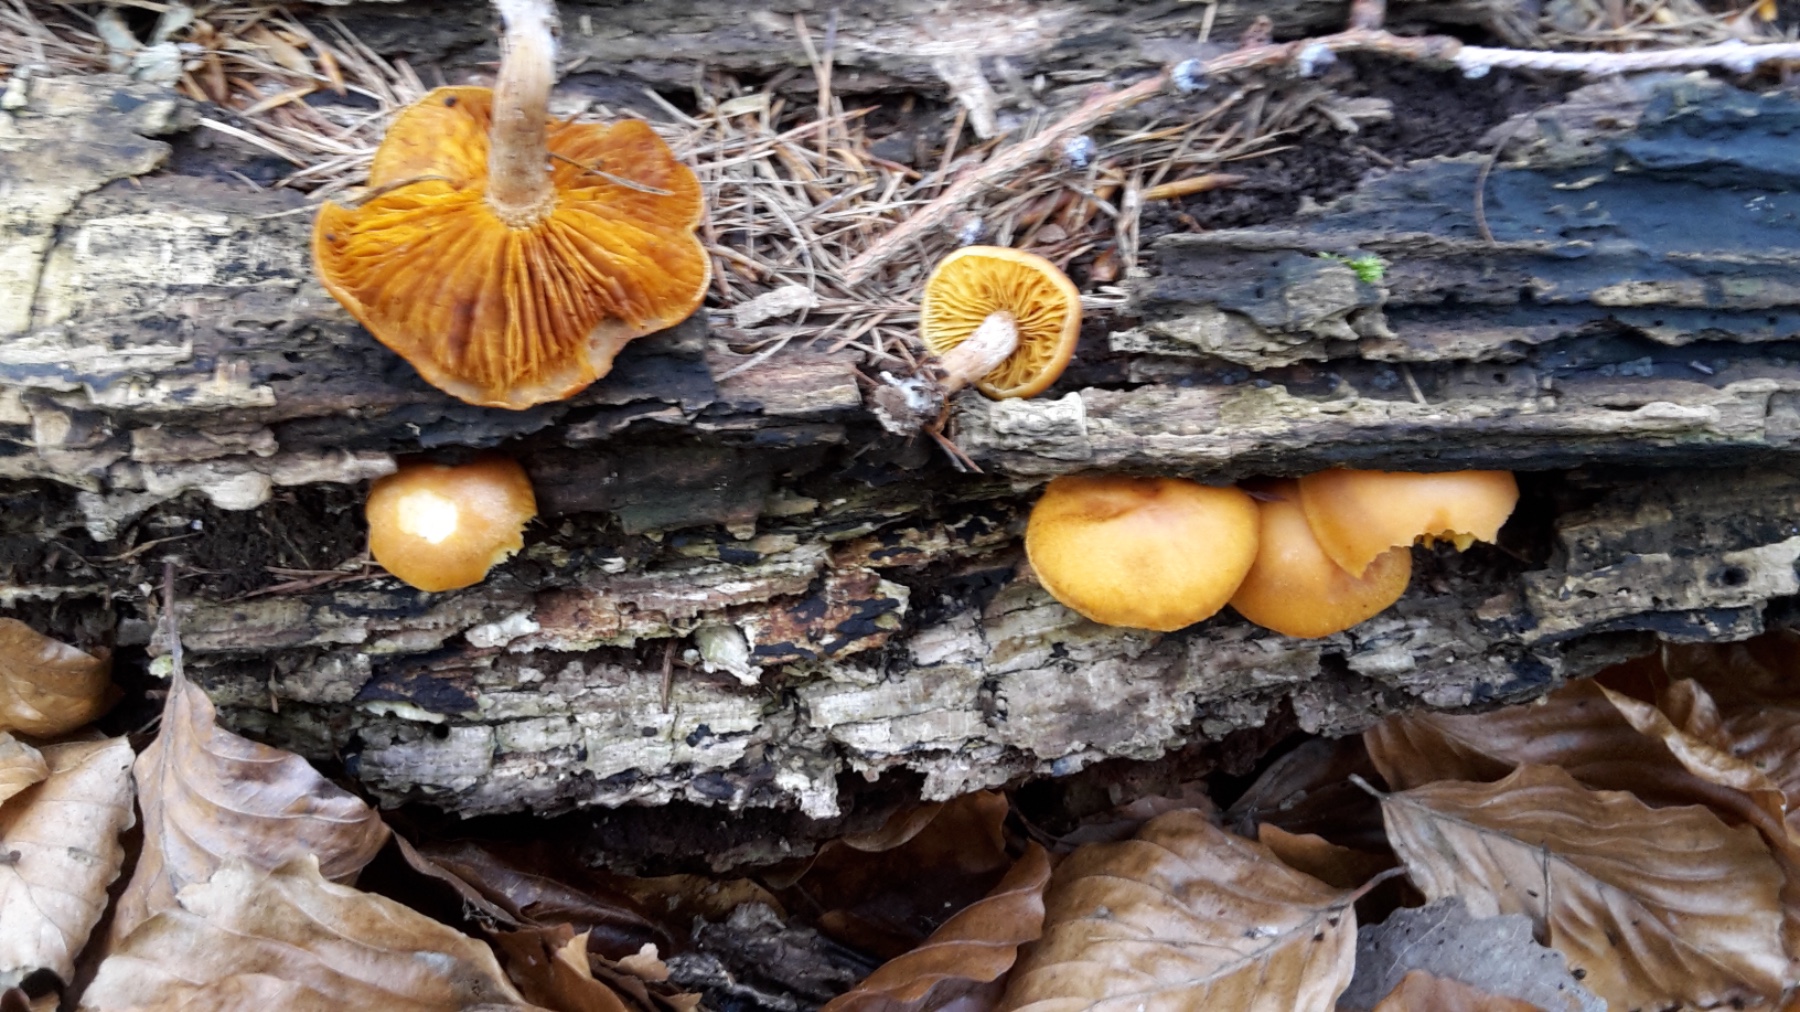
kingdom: Fungi
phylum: Basidiomycota
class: Agaricomycetes
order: Agaricales
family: Hymenogastraceae
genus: Gymnopilus
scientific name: Gymnopilus penetrans
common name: plettet flammehat
